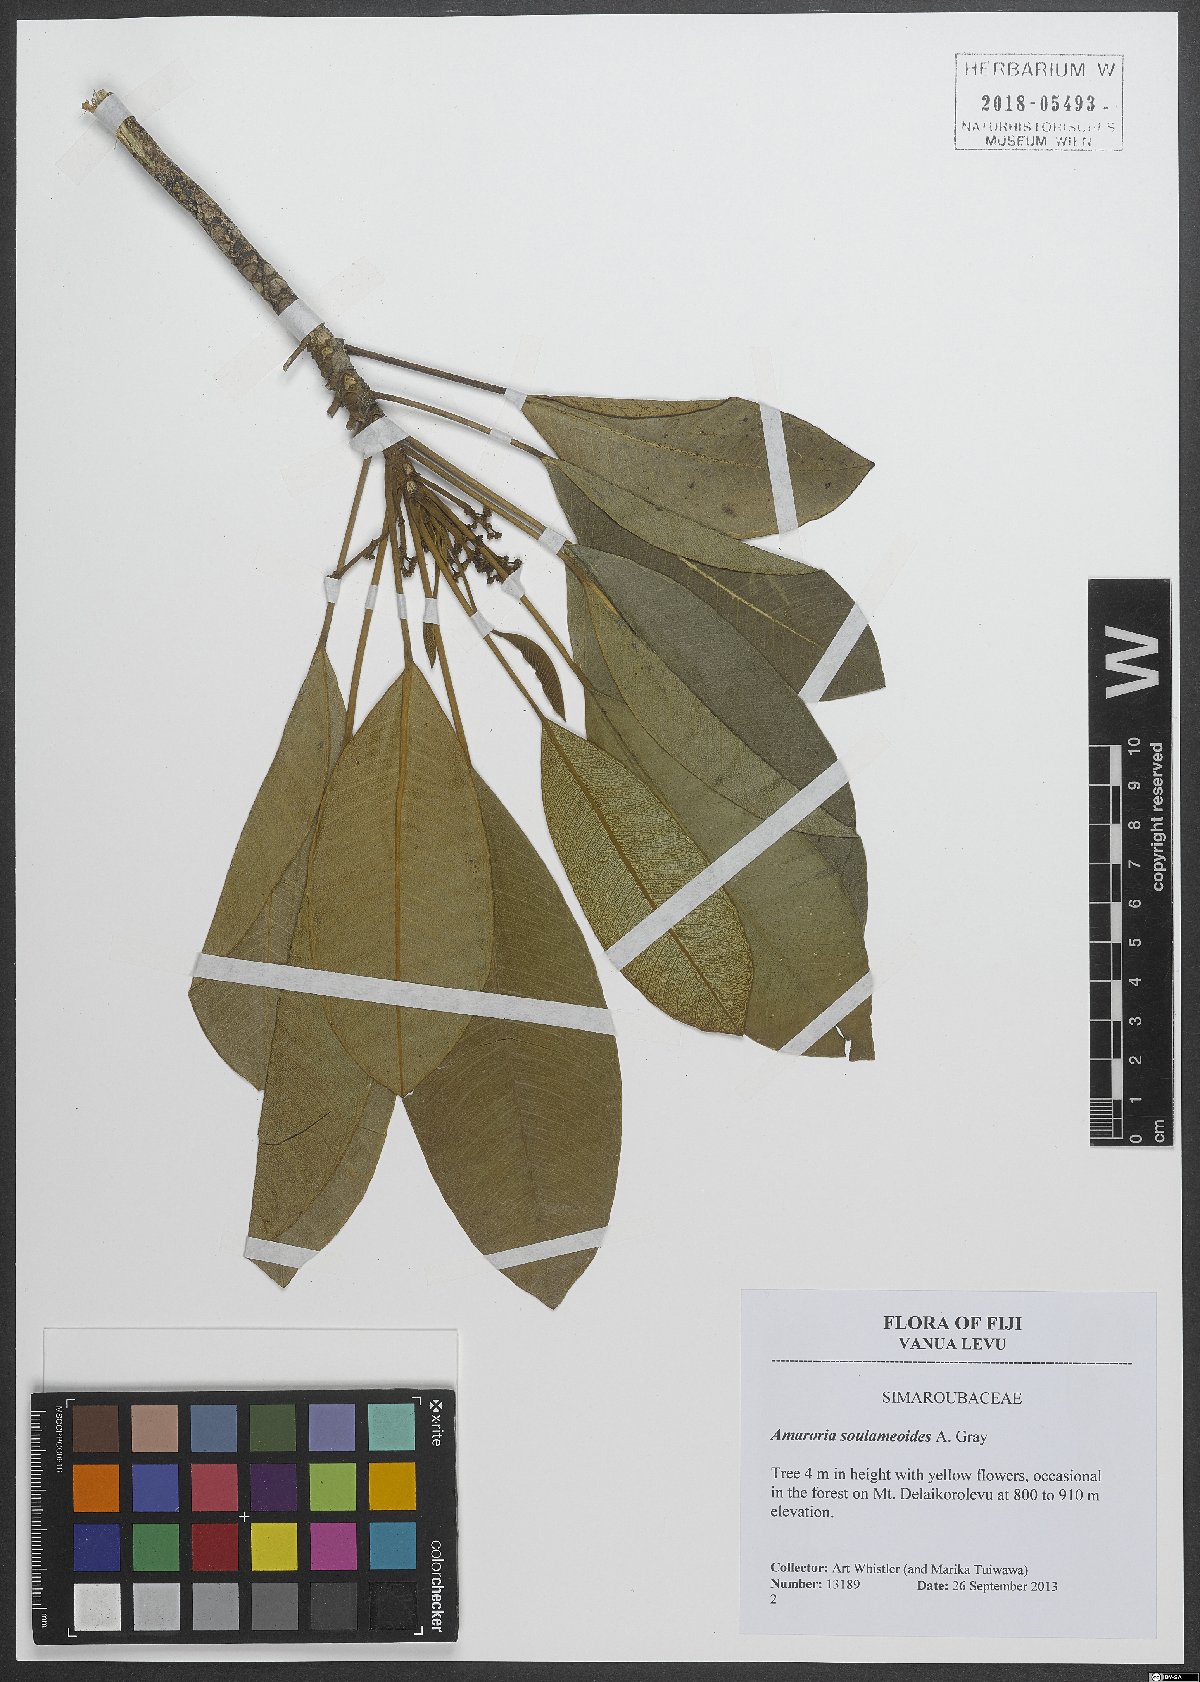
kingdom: Plantae
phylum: Tracheophyta
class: Magnoliopsida
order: Sapindales
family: Simaroubaceae
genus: Amaroria
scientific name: Amaroria soulameoides
